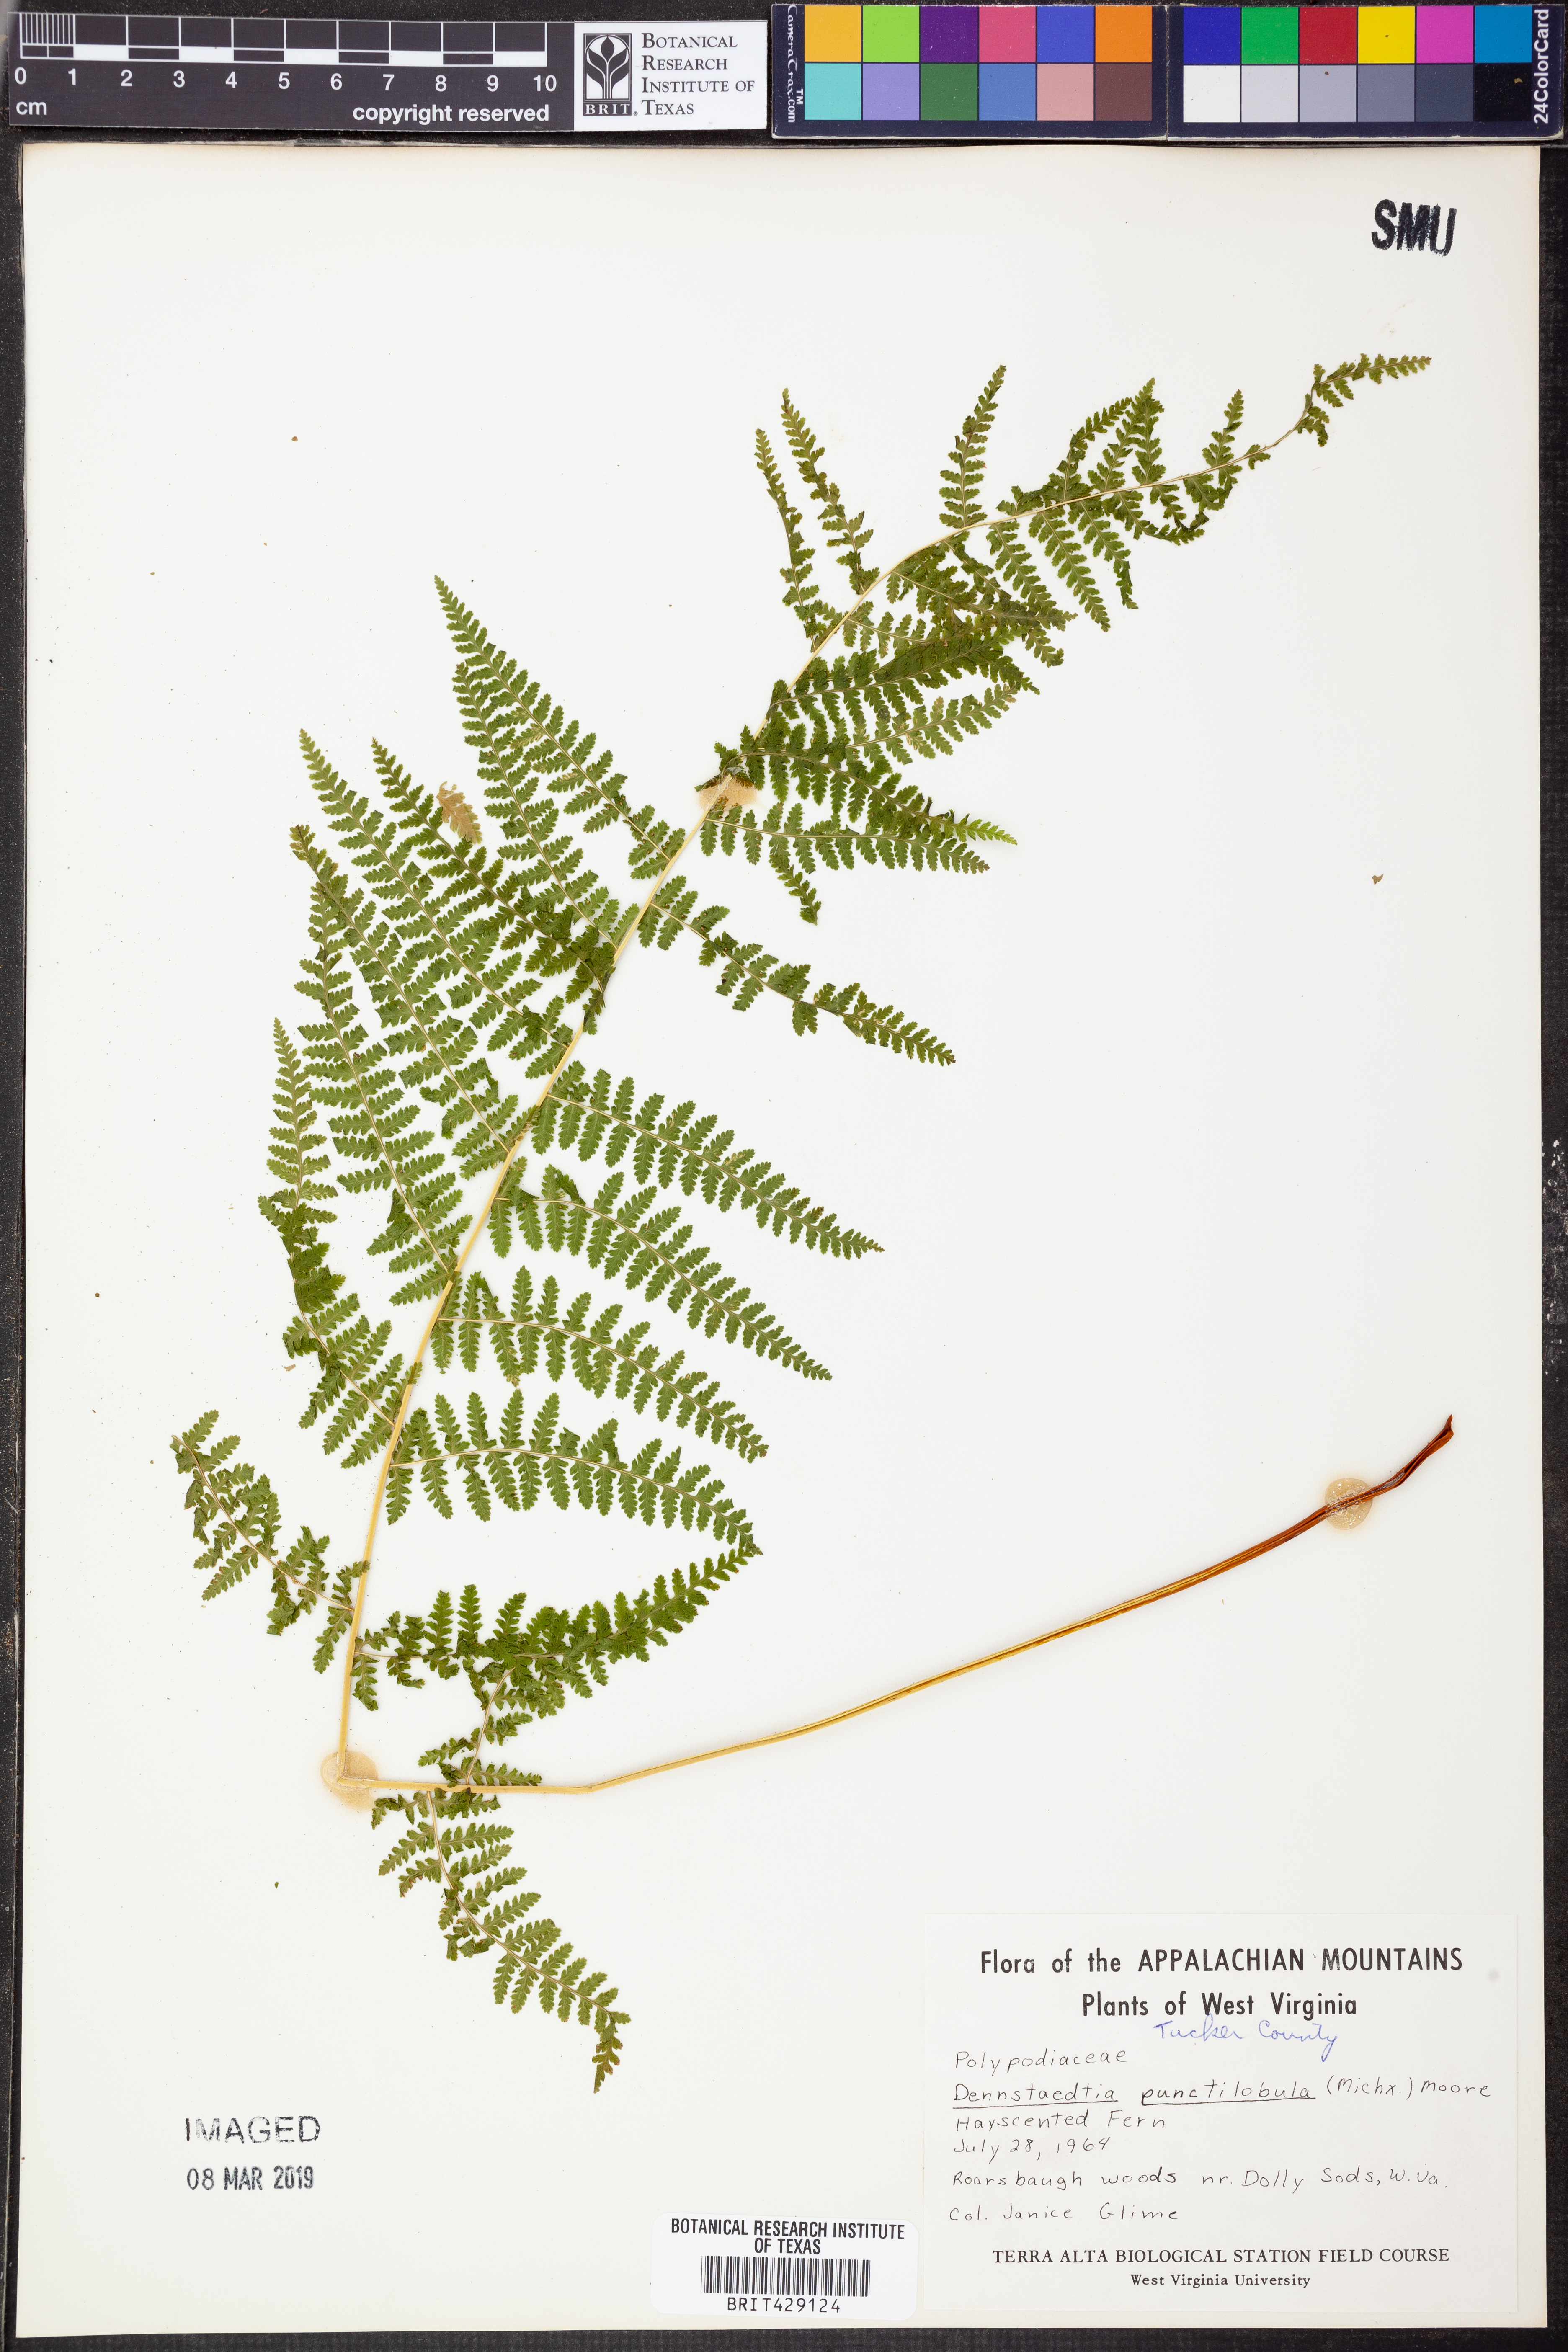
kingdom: Plantae
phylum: Tracheophyta
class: Polypodiopsida
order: Polypodiales
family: Dennstaedtiaceae
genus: Sitobolium
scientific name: Sitobolium punctilobum
